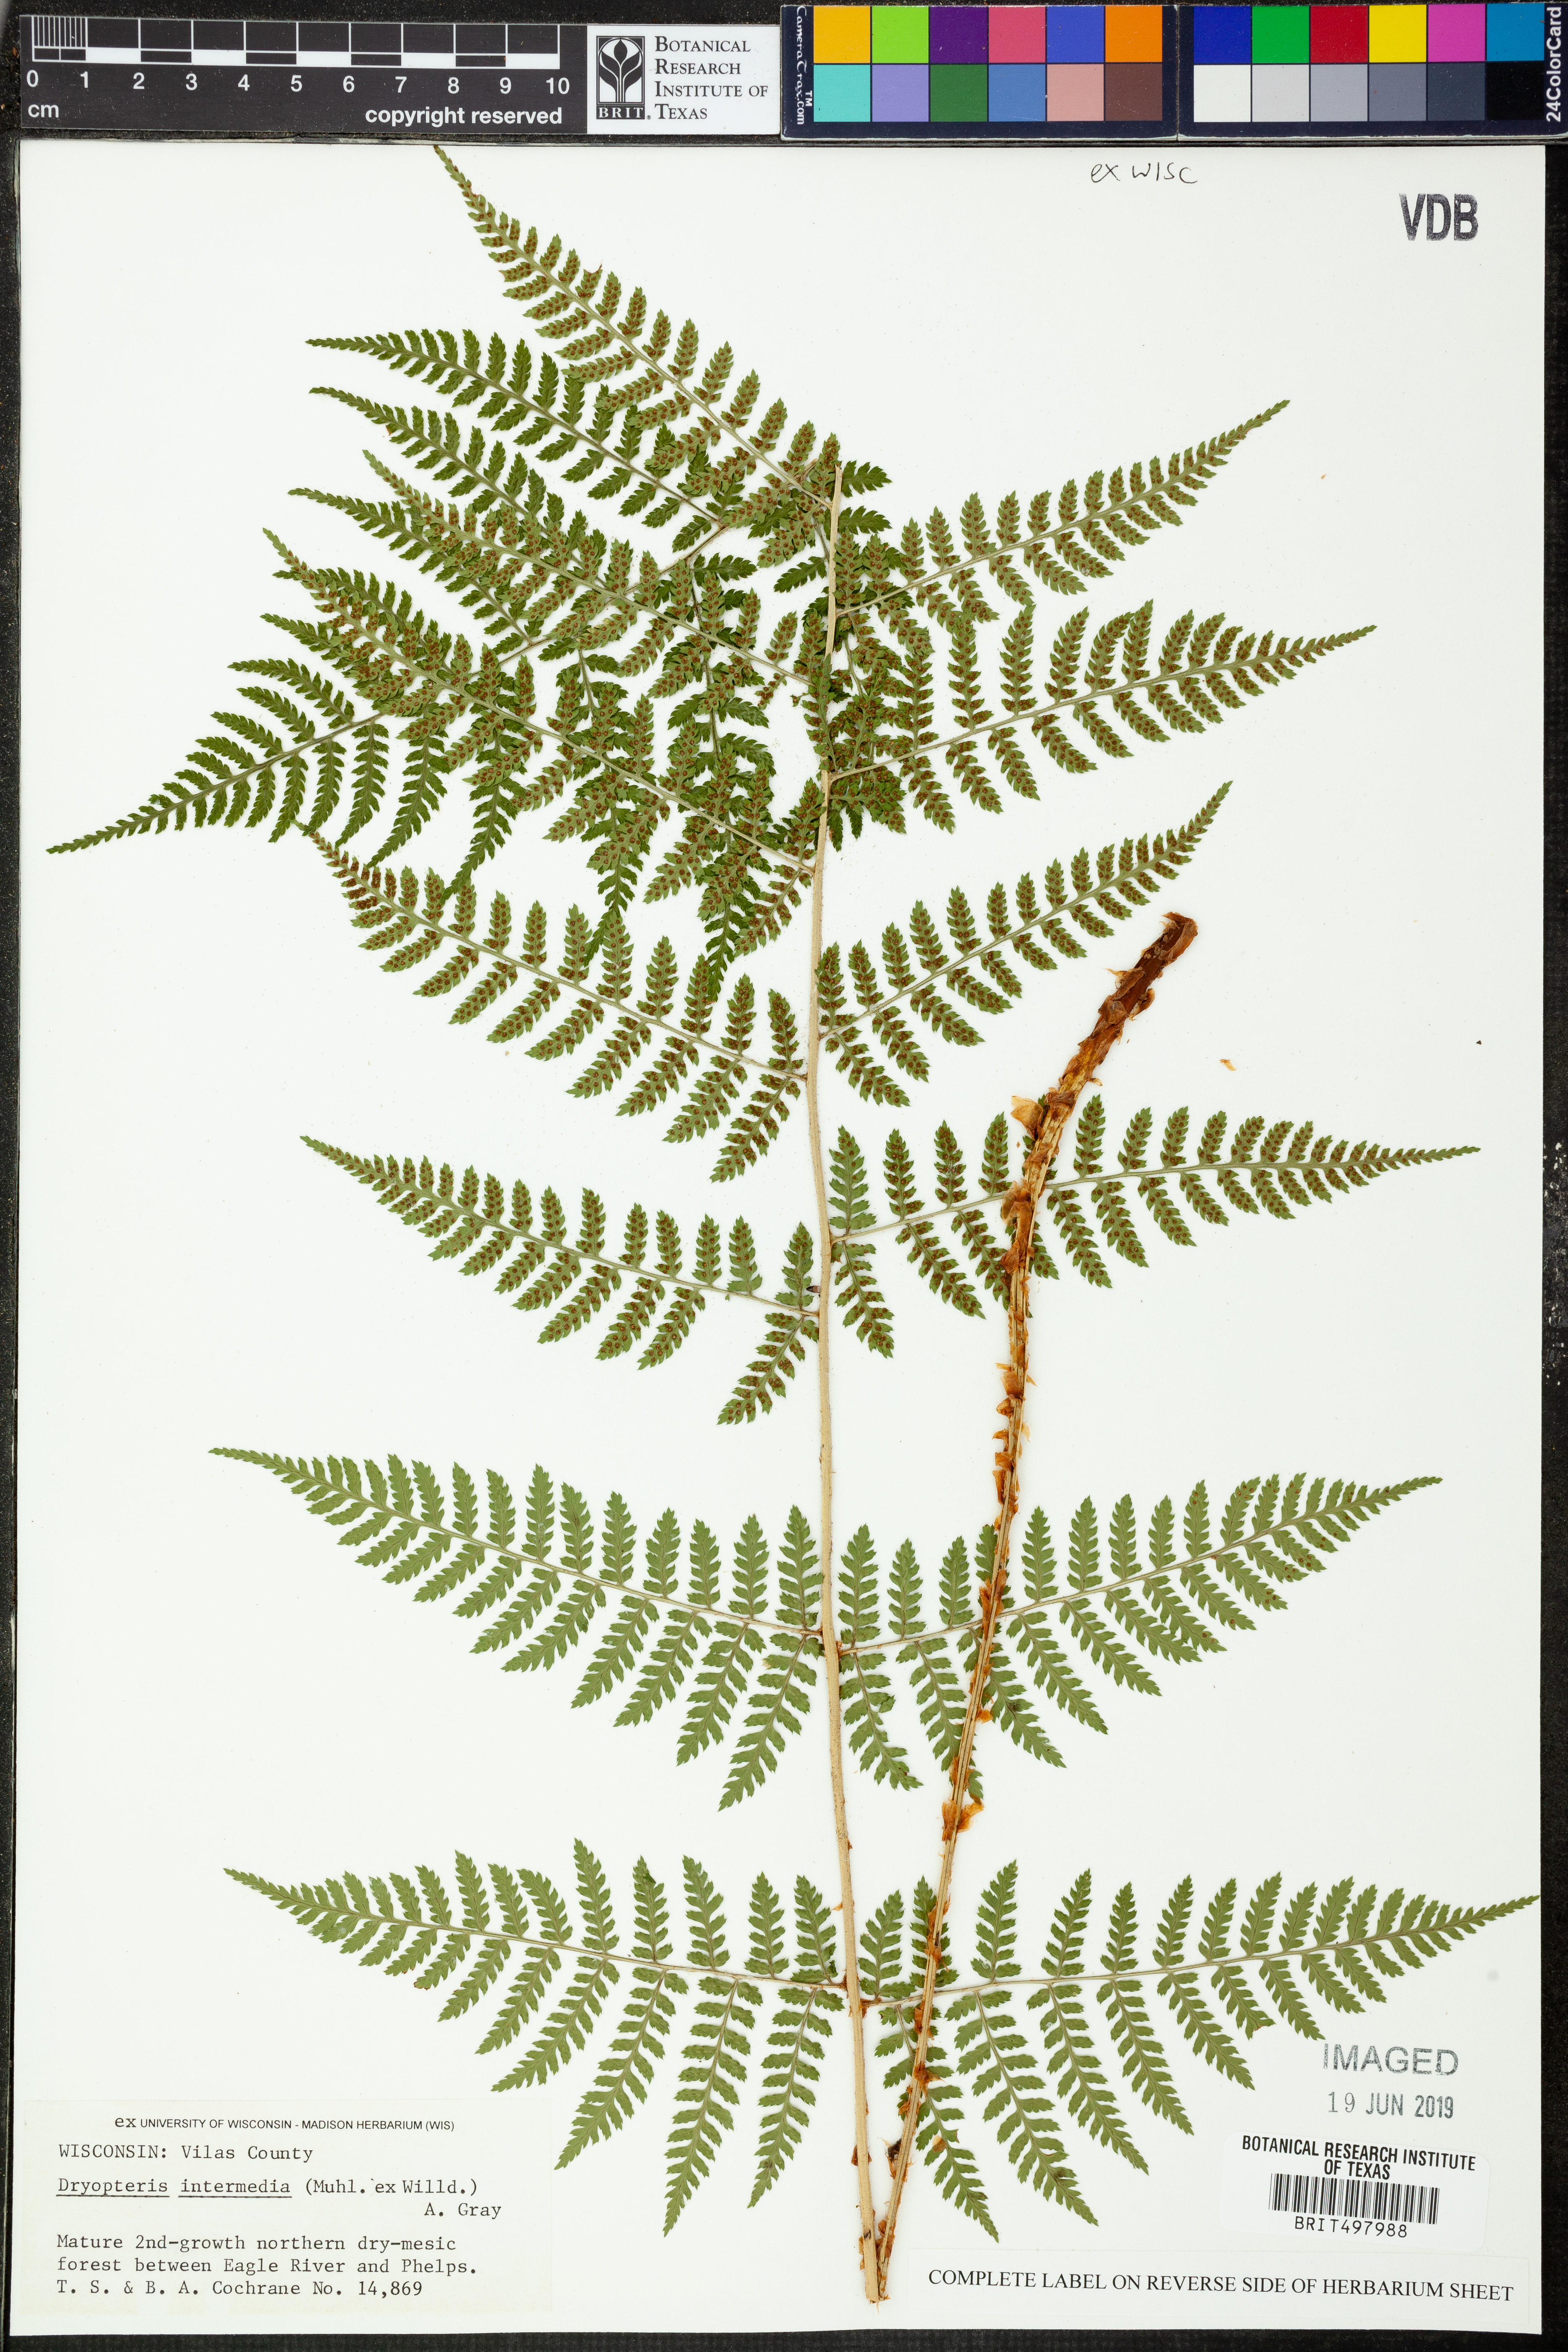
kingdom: Plantae
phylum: Tracheophyta
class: Polypodiopsida
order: Polypodiales
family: Dryopteridaceae
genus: Dryopteris
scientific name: Dryopteris intermedia
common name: Evergreen wood fern
